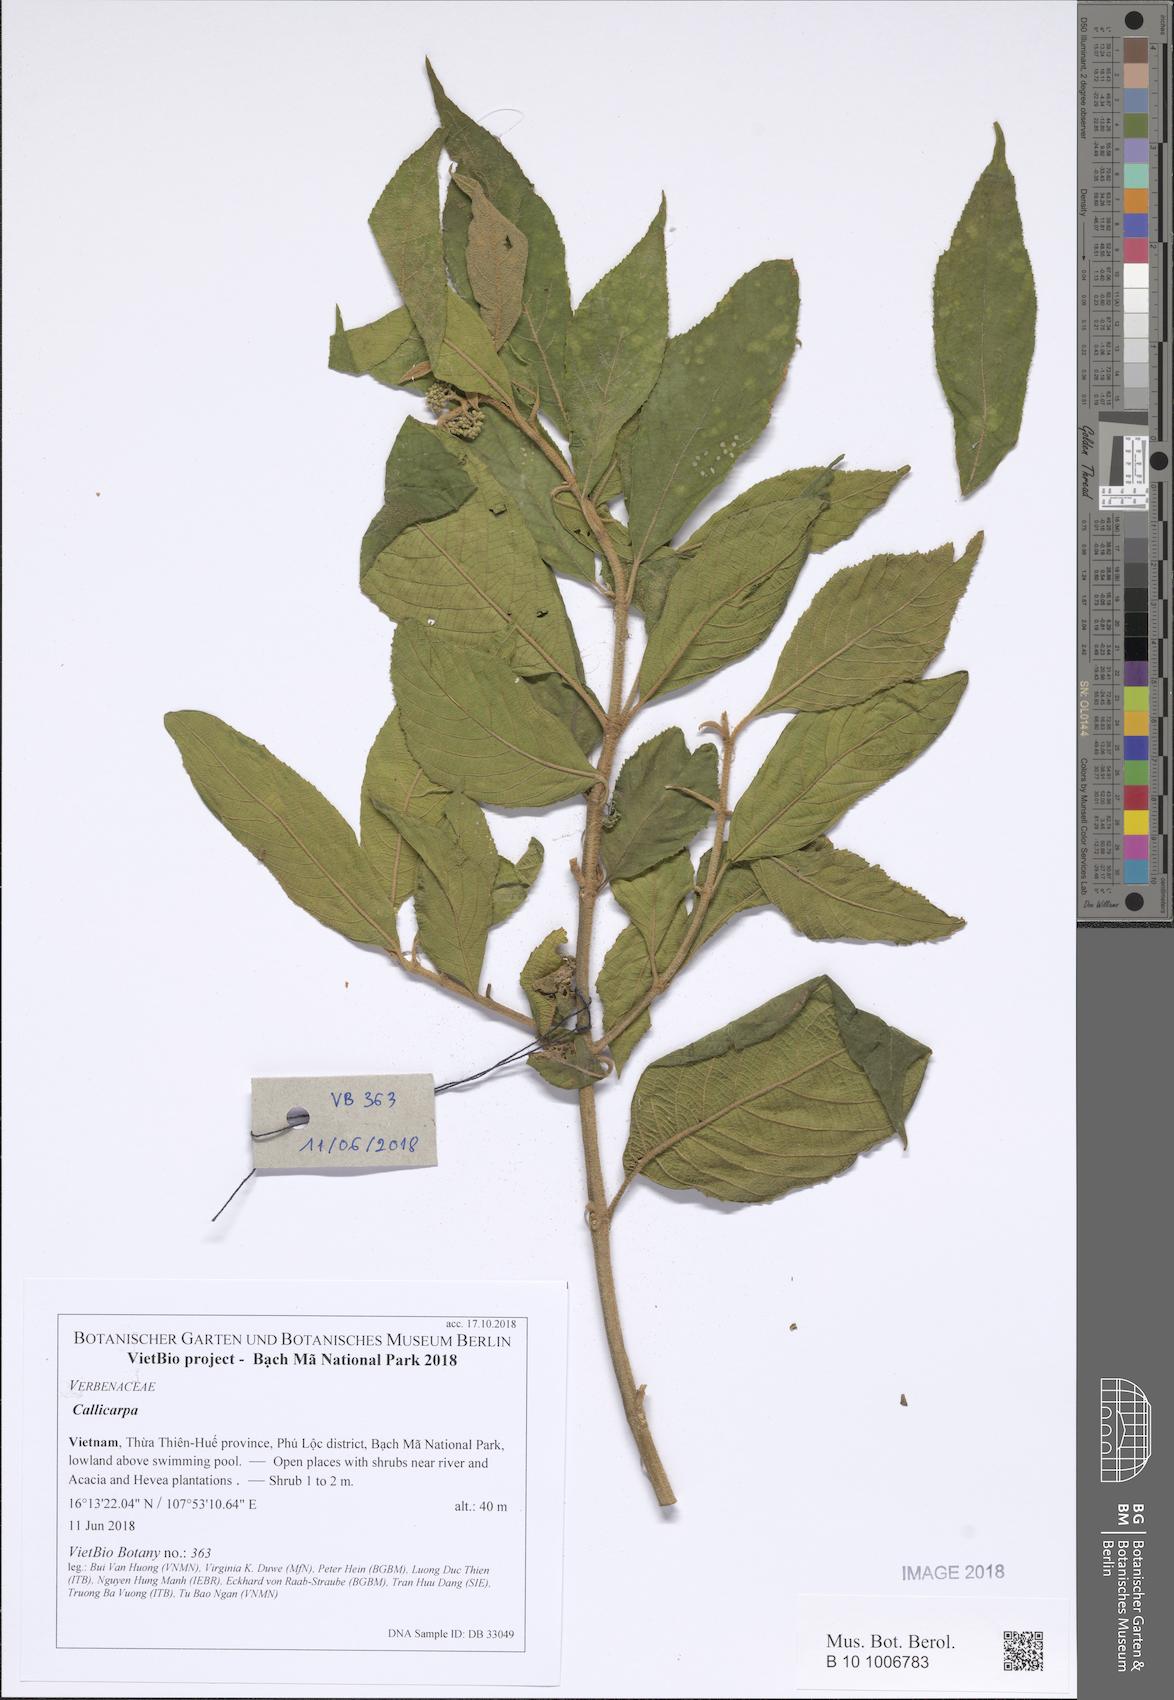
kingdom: Plantae
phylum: Tracheophyta
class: Magnoliopsida
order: Lamiales
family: Lamiaceae
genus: Callicarpa
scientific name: Callicarpa
